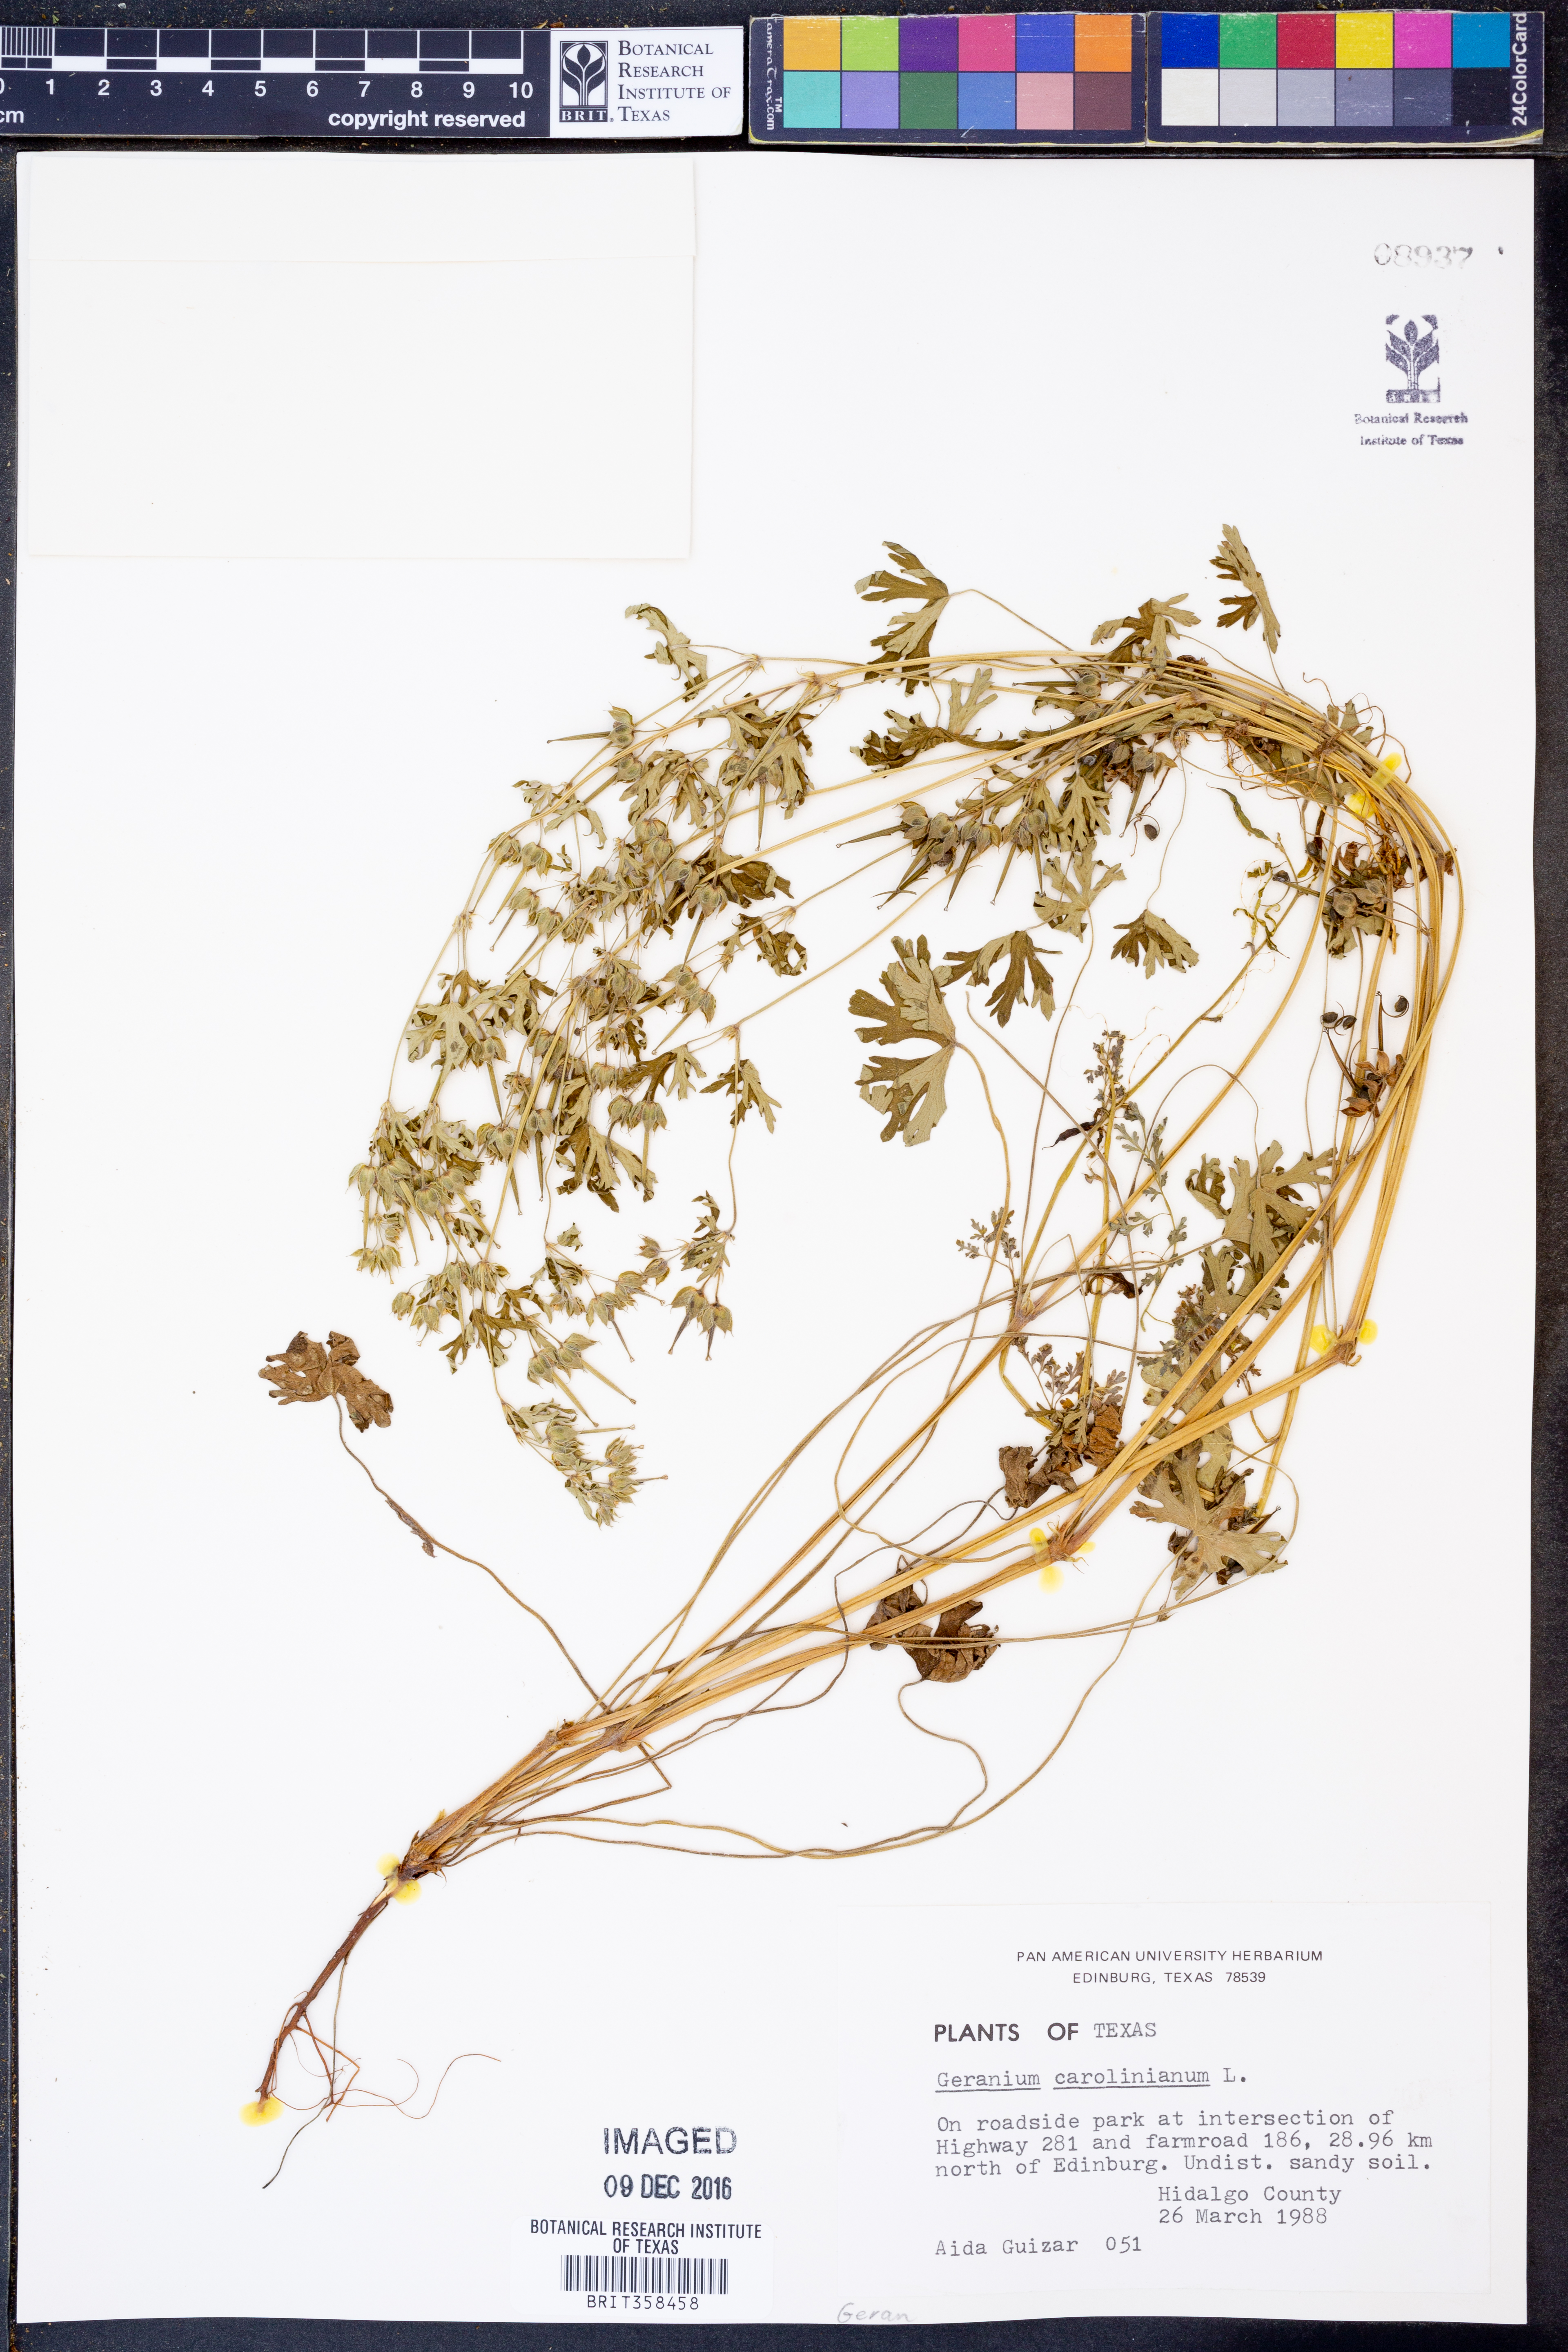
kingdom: Plantae
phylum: Tracheophyta
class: Magnoliopsida
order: Geraniales
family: Geraniaceae
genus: Geranium
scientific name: Geranium carolinianum
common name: Carolina crane's-bill
